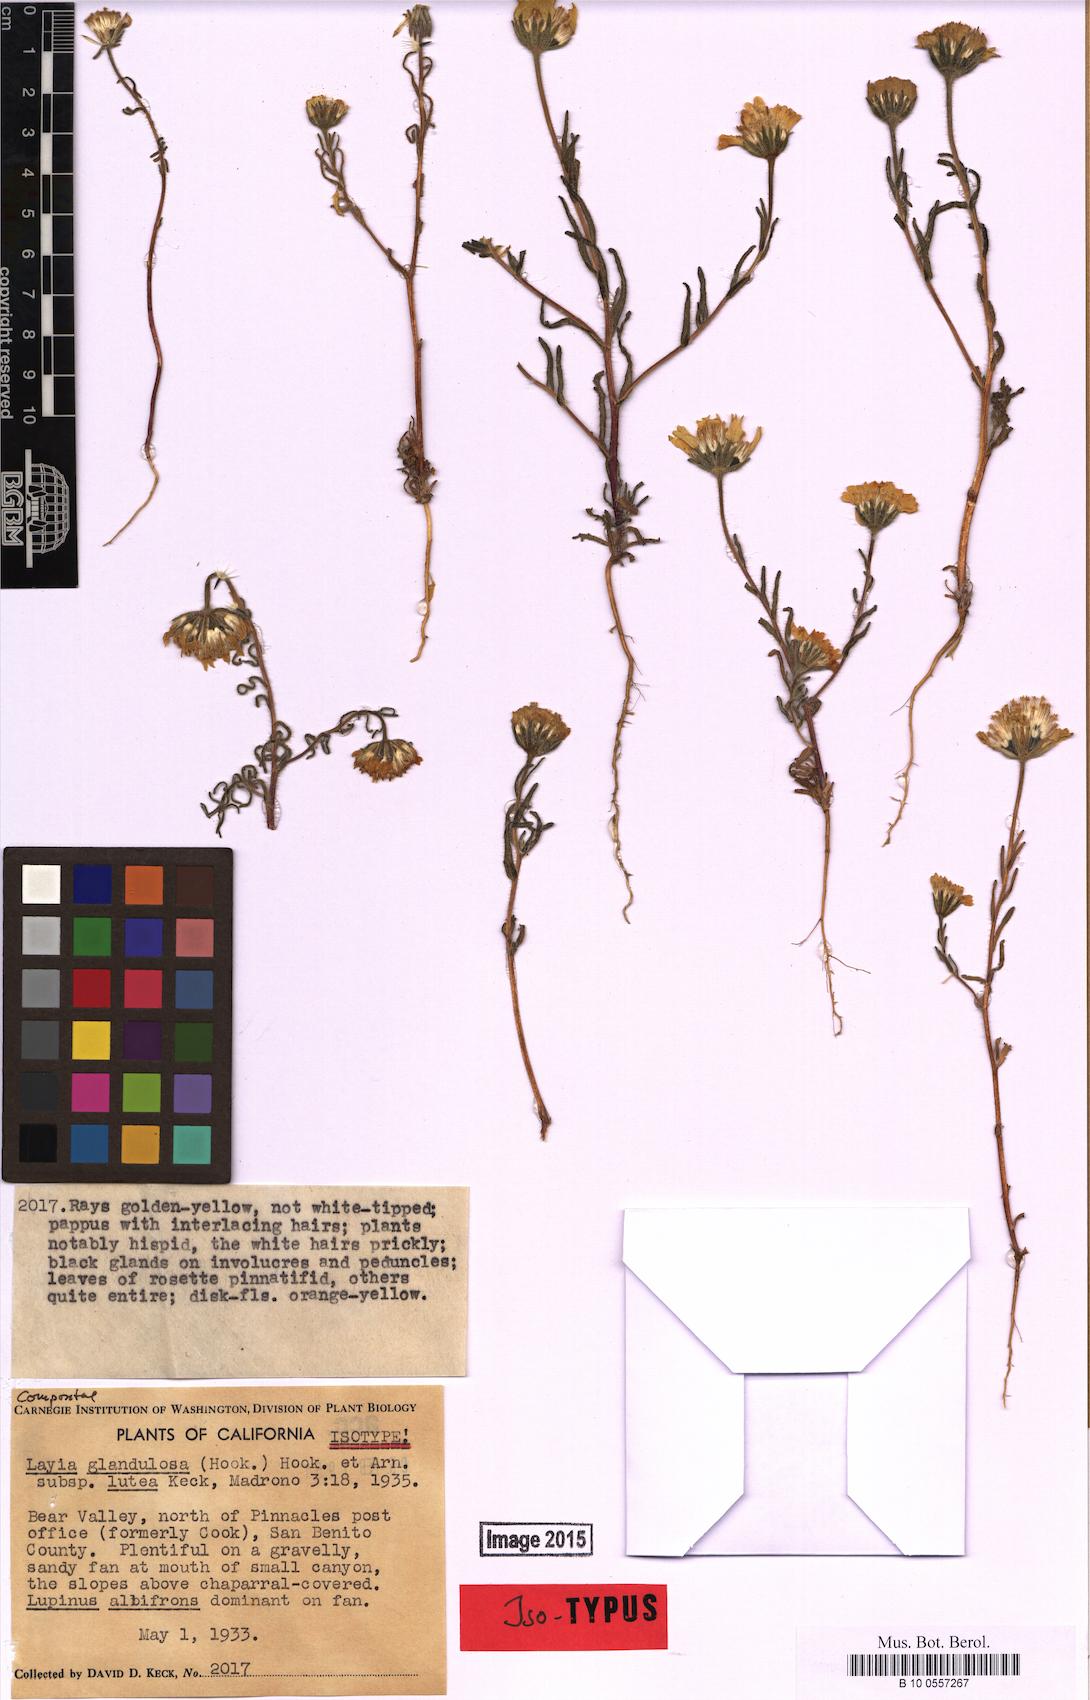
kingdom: Plantae
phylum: Tracheophyta
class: Magnoliopsida
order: Asterales
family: Asteraceae
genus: Layia
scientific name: Layia glandulosa
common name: White layia
